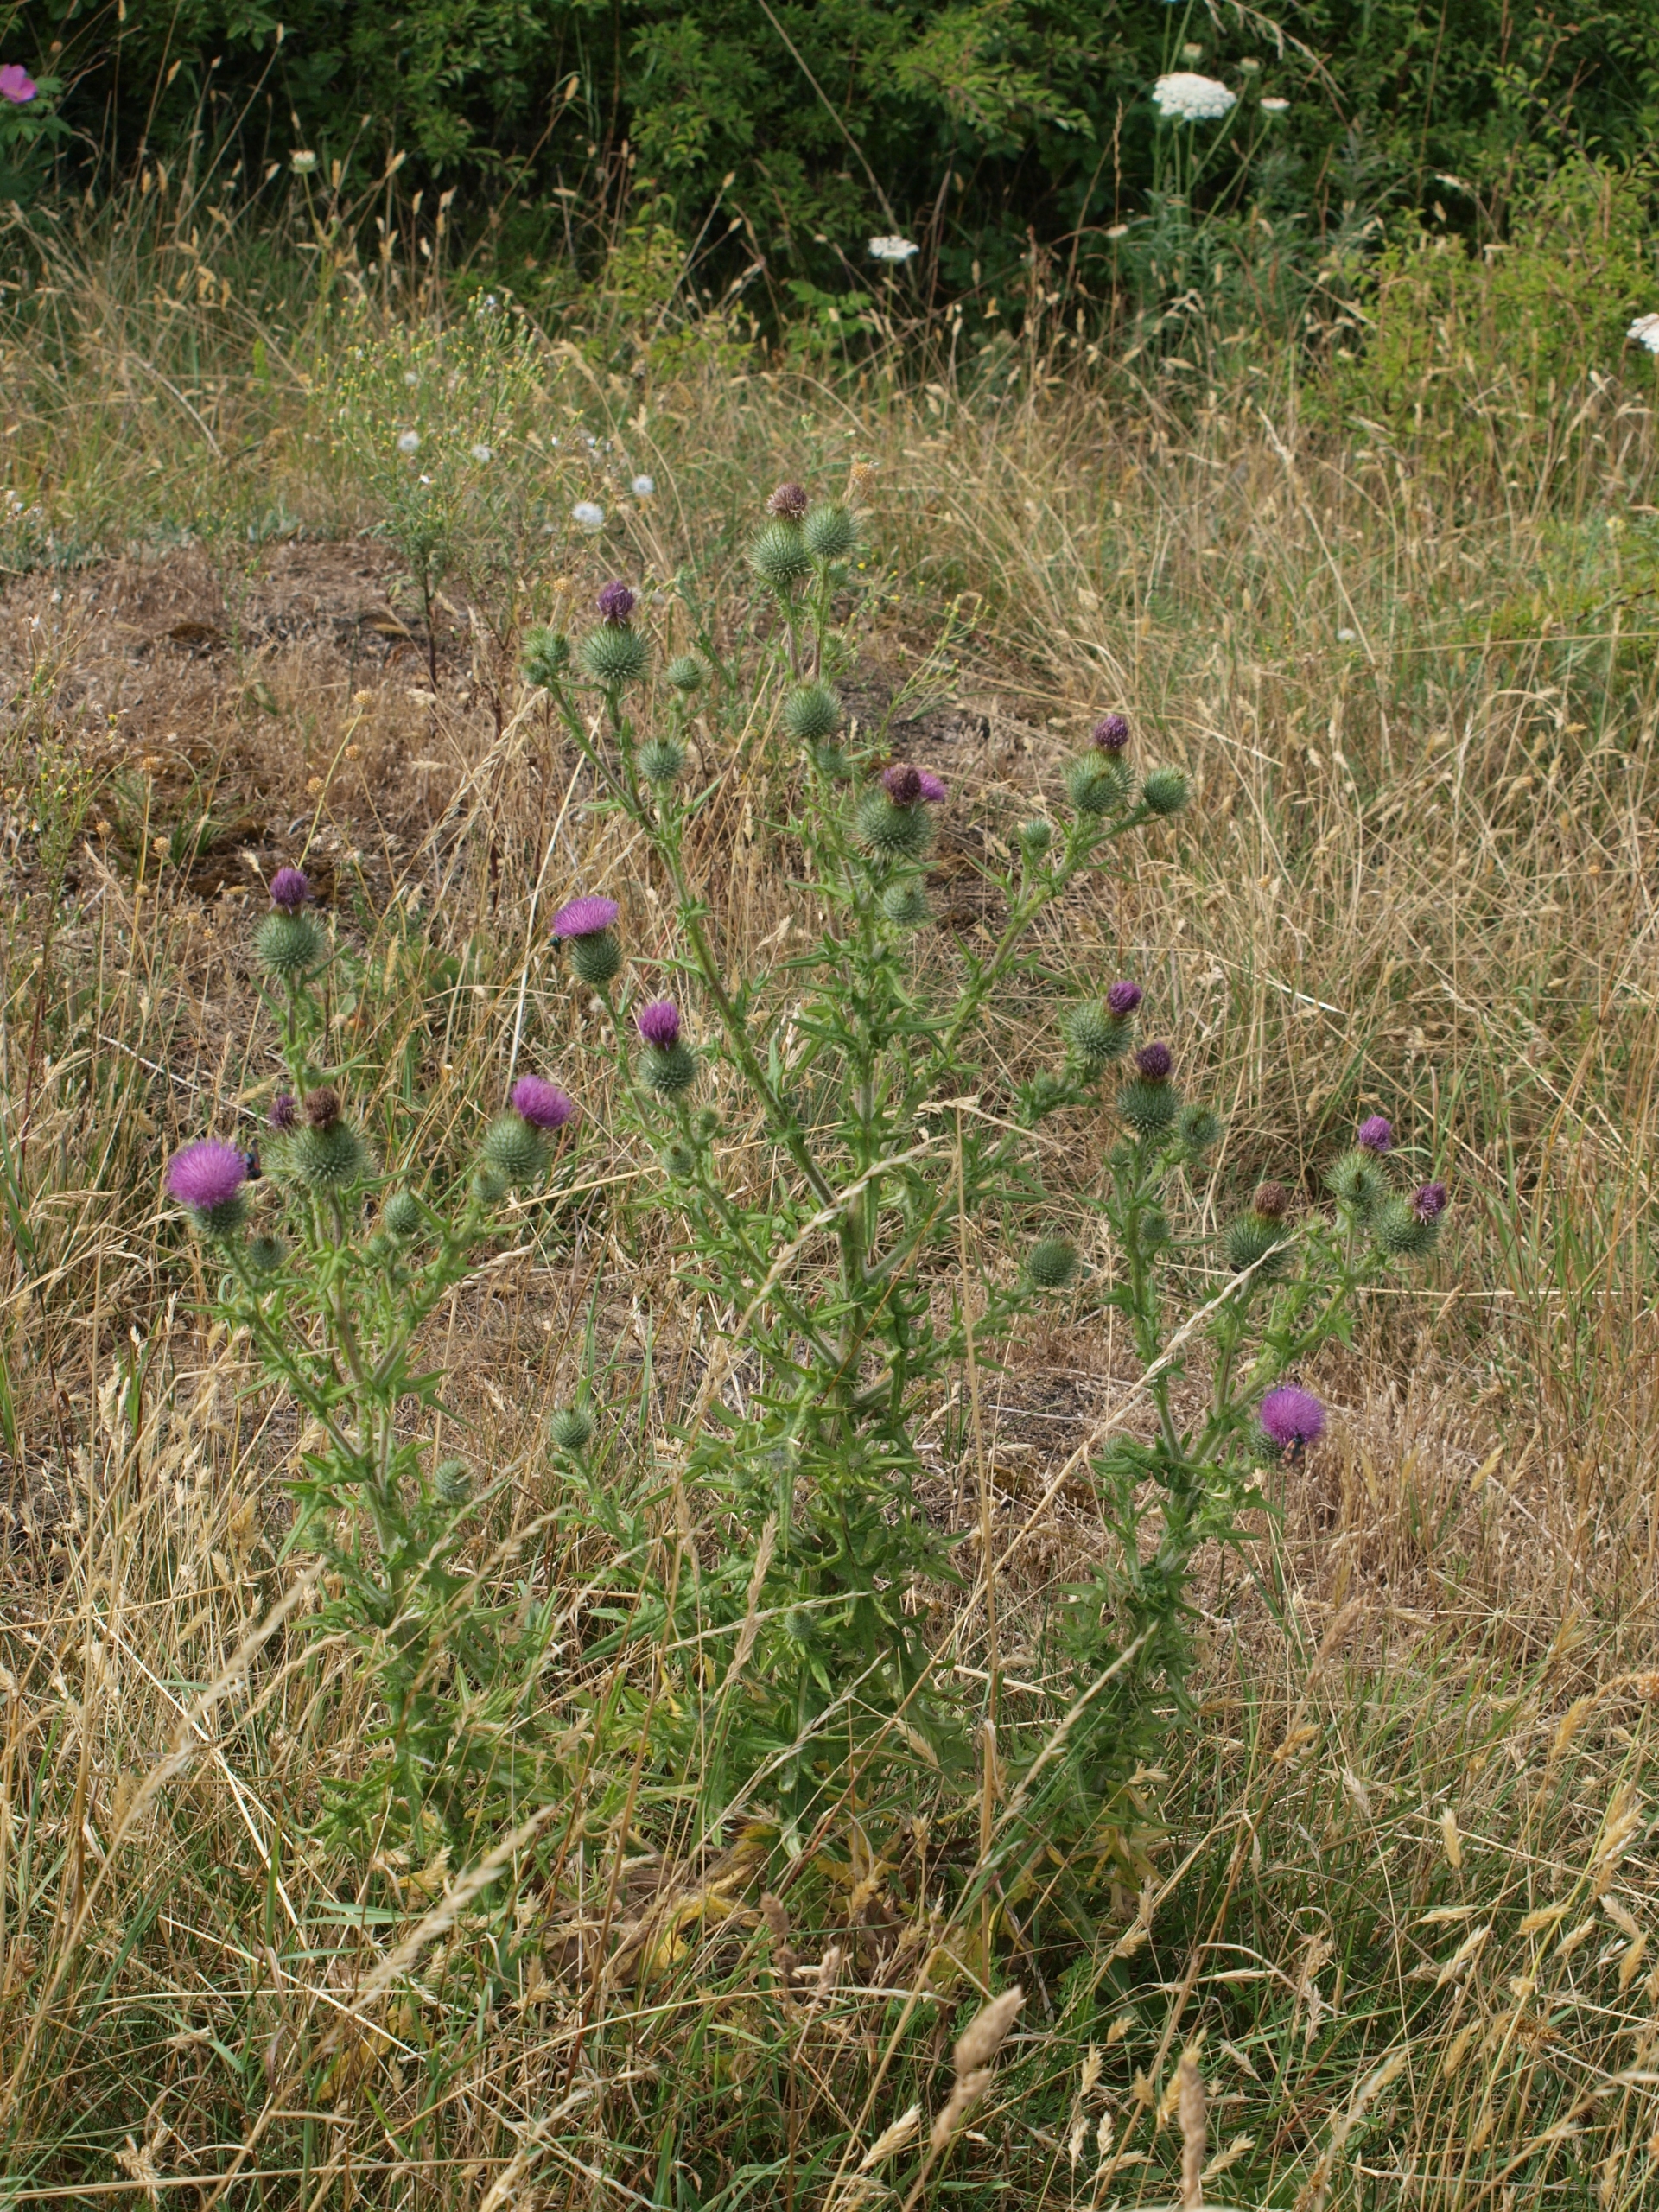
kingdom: Plantae
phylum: Tracheophyta
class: Magnoliopsida
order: Asterales
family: Asteraceae
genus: Cirsium
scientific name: Cirsium vulgare
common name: Horse-tidsel
